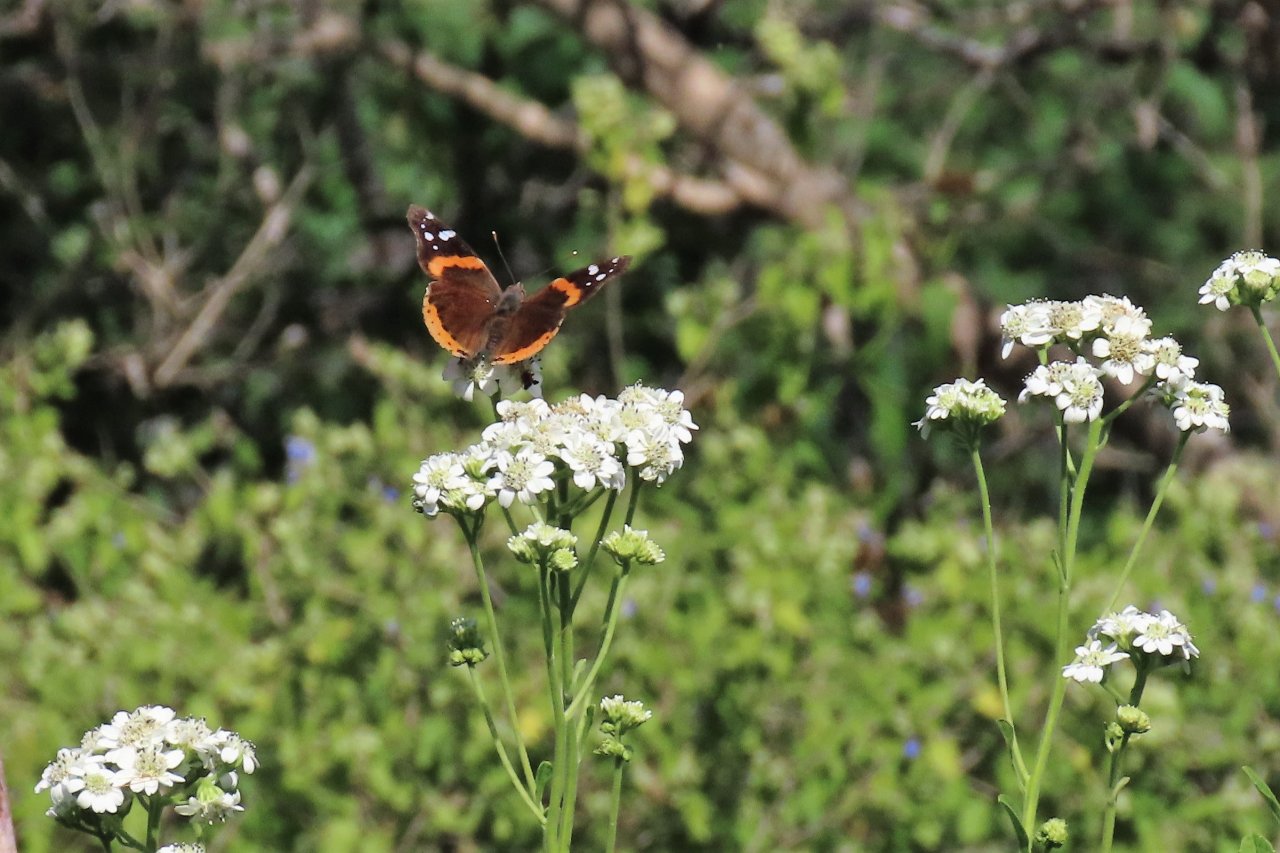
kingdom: Animalia
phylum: Arthropoda
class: Insecta
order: Lepidoptera
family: Nymphalidae
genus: Vanessa
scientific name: Vanessa atalanta
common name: Red Admiral
